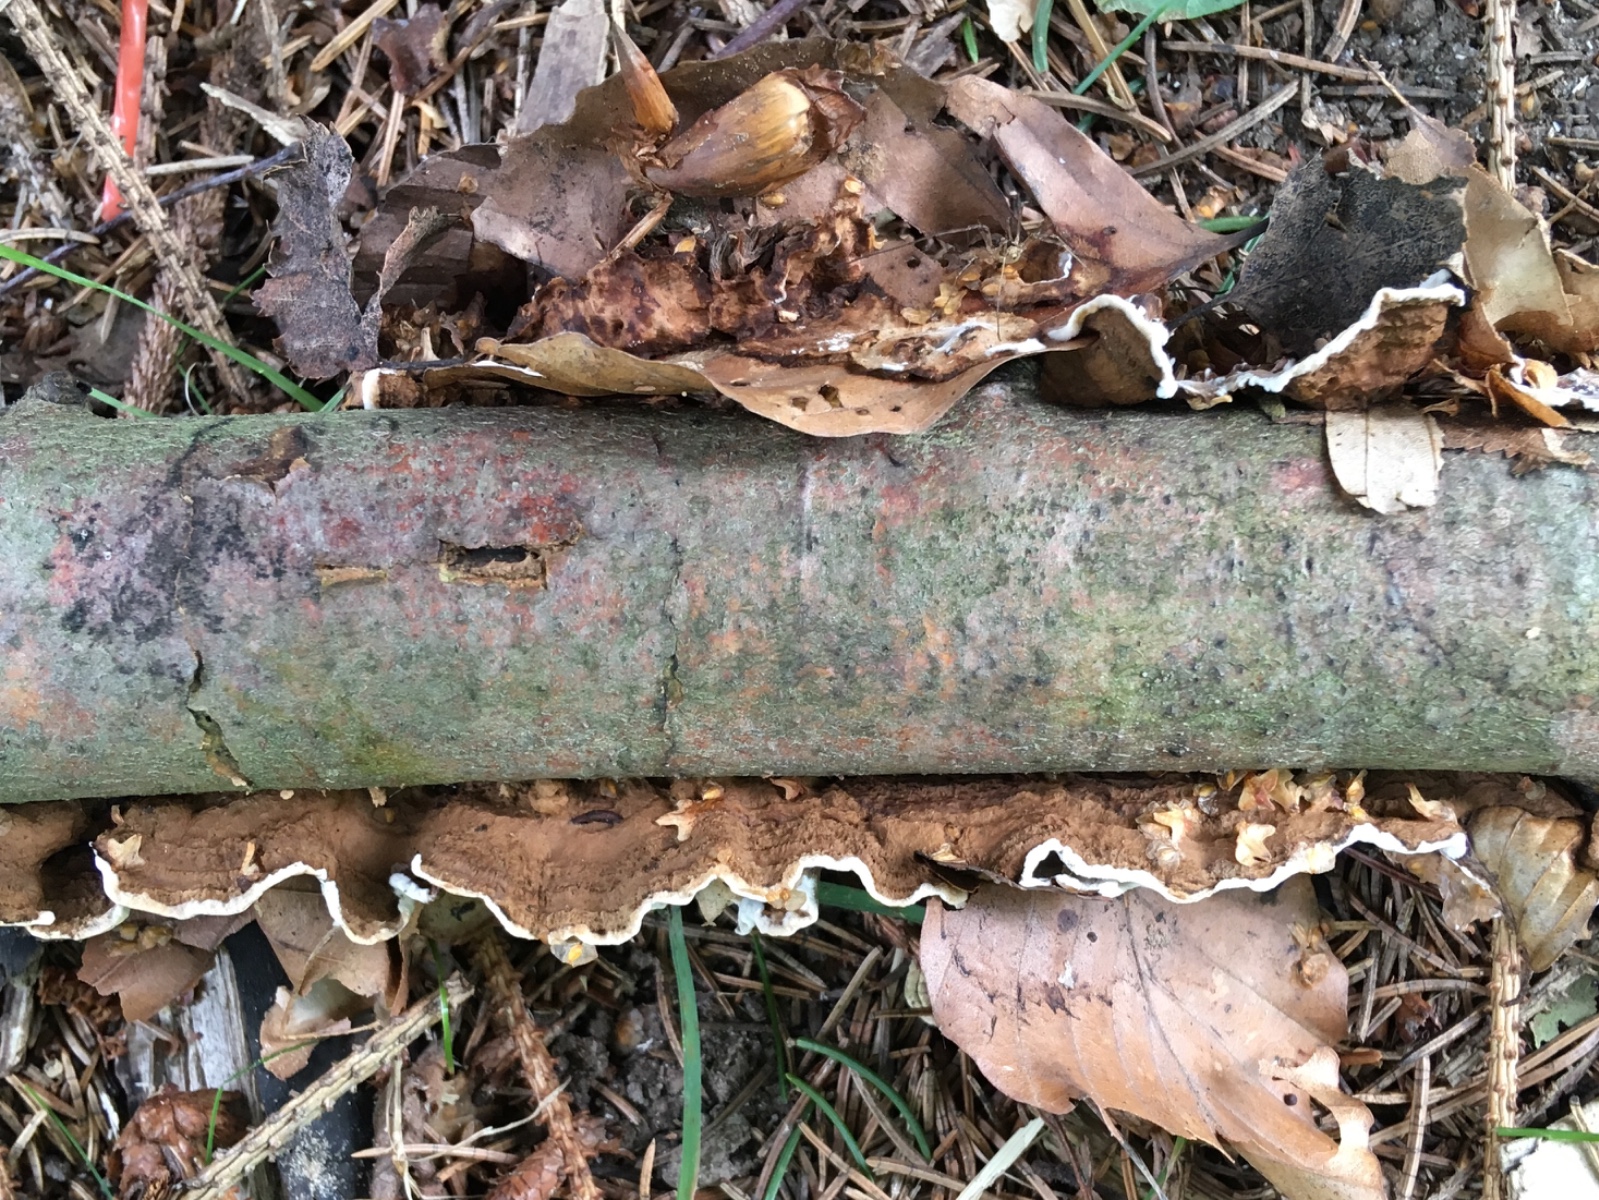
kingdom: Fungi
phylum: Basidiomycota
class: Agaricomycetes
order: Russulales
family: Hericiaceae
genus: Laxitextum
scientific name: Laxitextum bicolor
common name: tvefarvet filtskind
